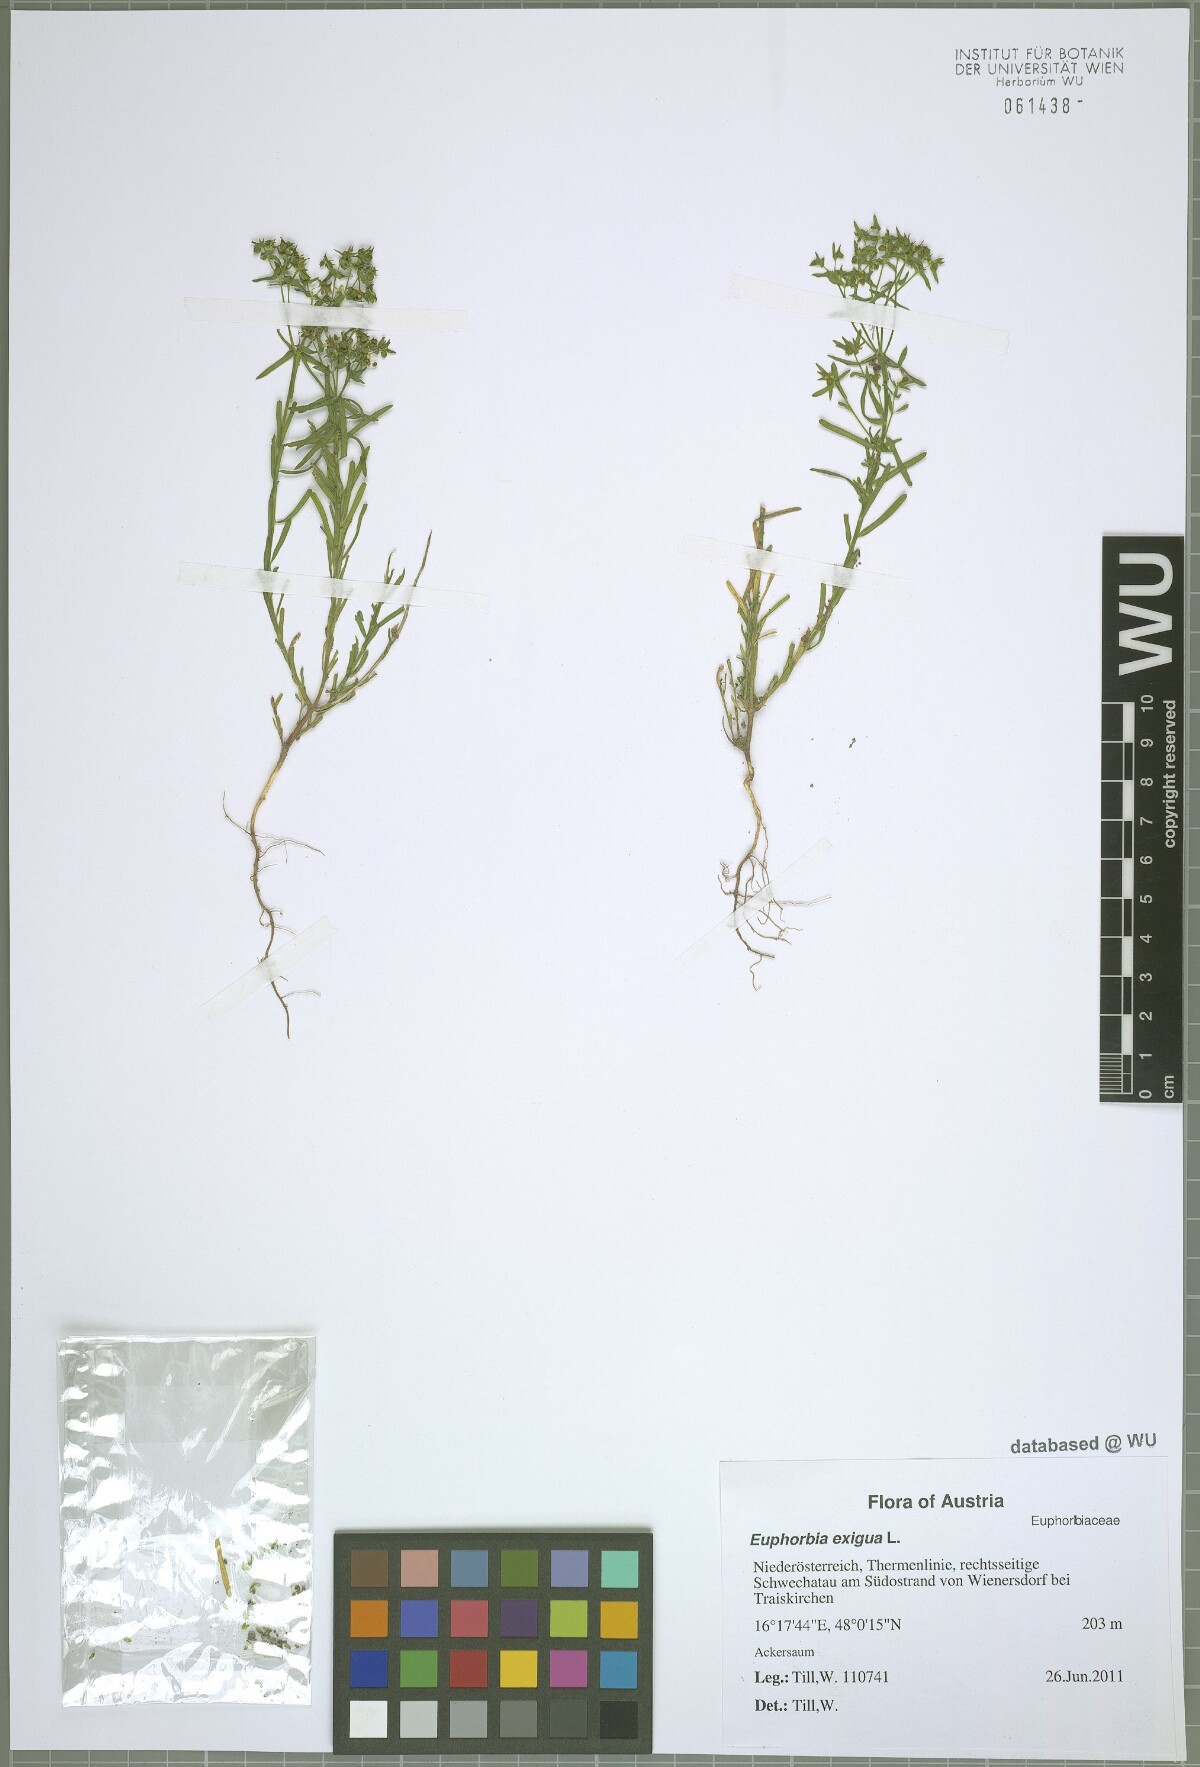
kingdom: Plantae
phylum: Tracheophyta
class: Magnoliopsida
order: Malpighiales
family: Euphorbiaceae
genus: Euphorbia
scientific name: Euphorbia exigua
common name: Dwarf spurge
